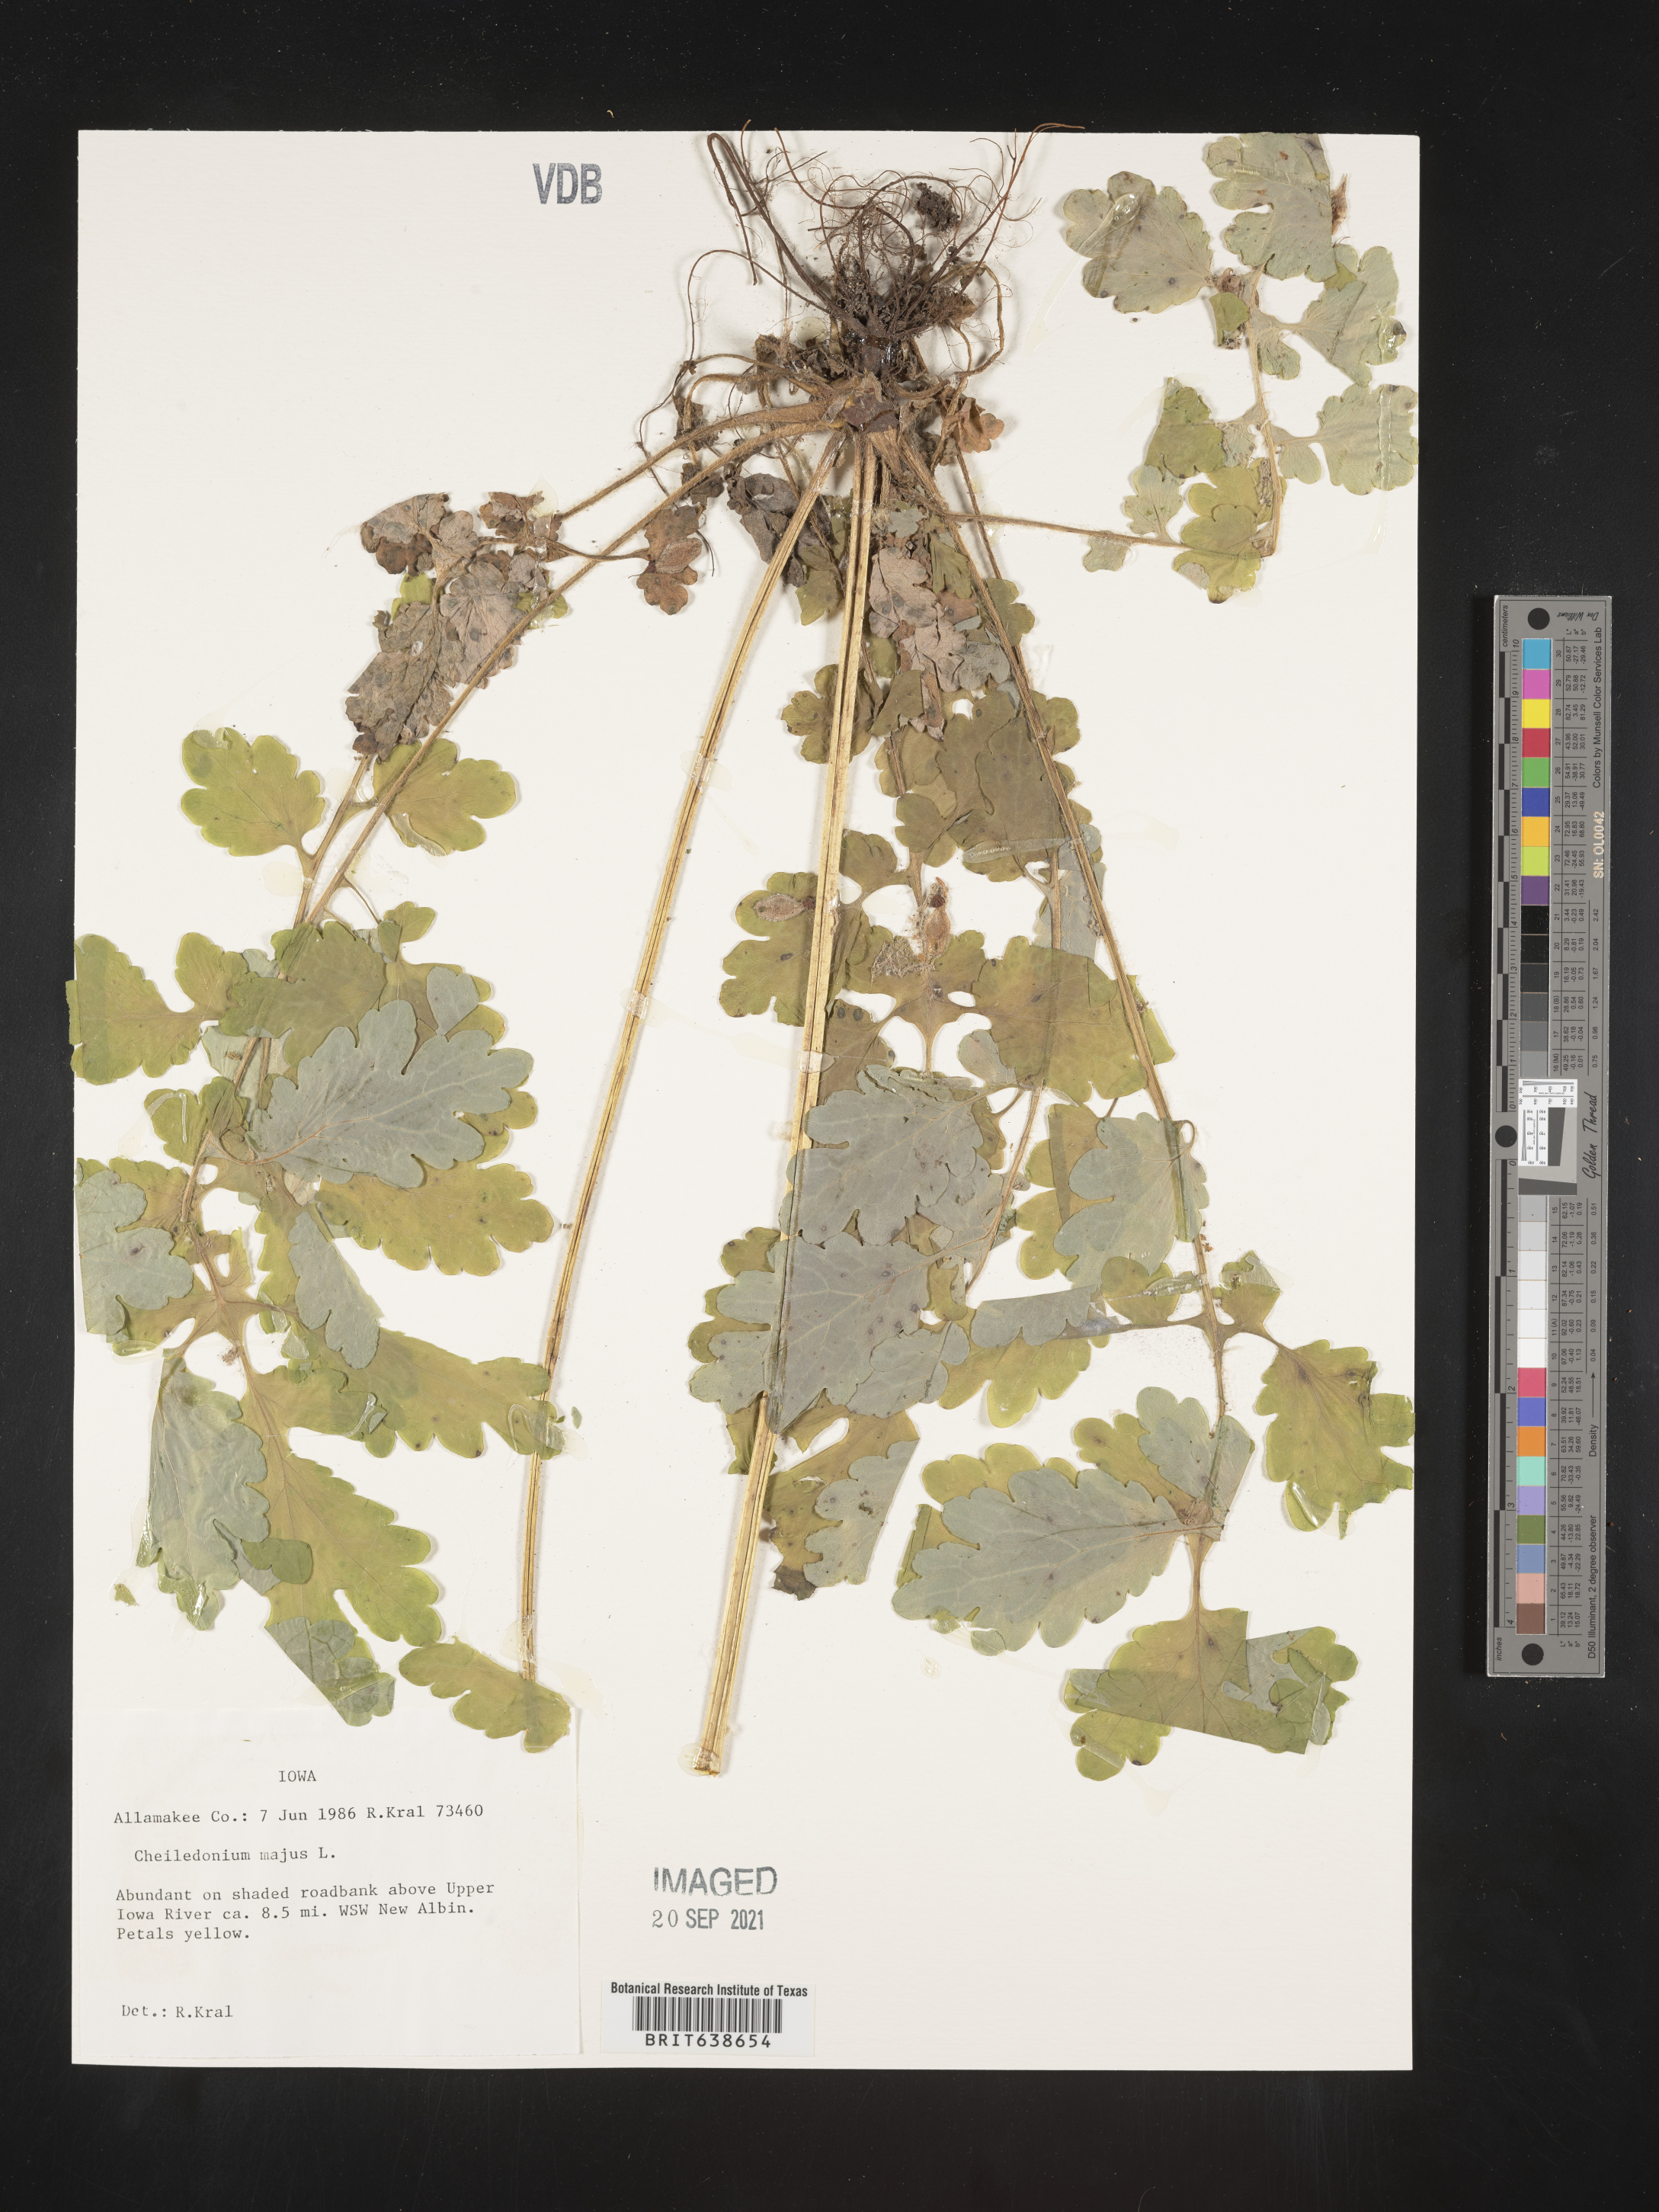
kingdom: Plantae
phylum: Tracheophyta
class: Magnoliopsida
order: Ranunculales
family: Papaveraceae
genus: Chelidonium
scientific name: Chelidonium majus
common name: Greater celandine
